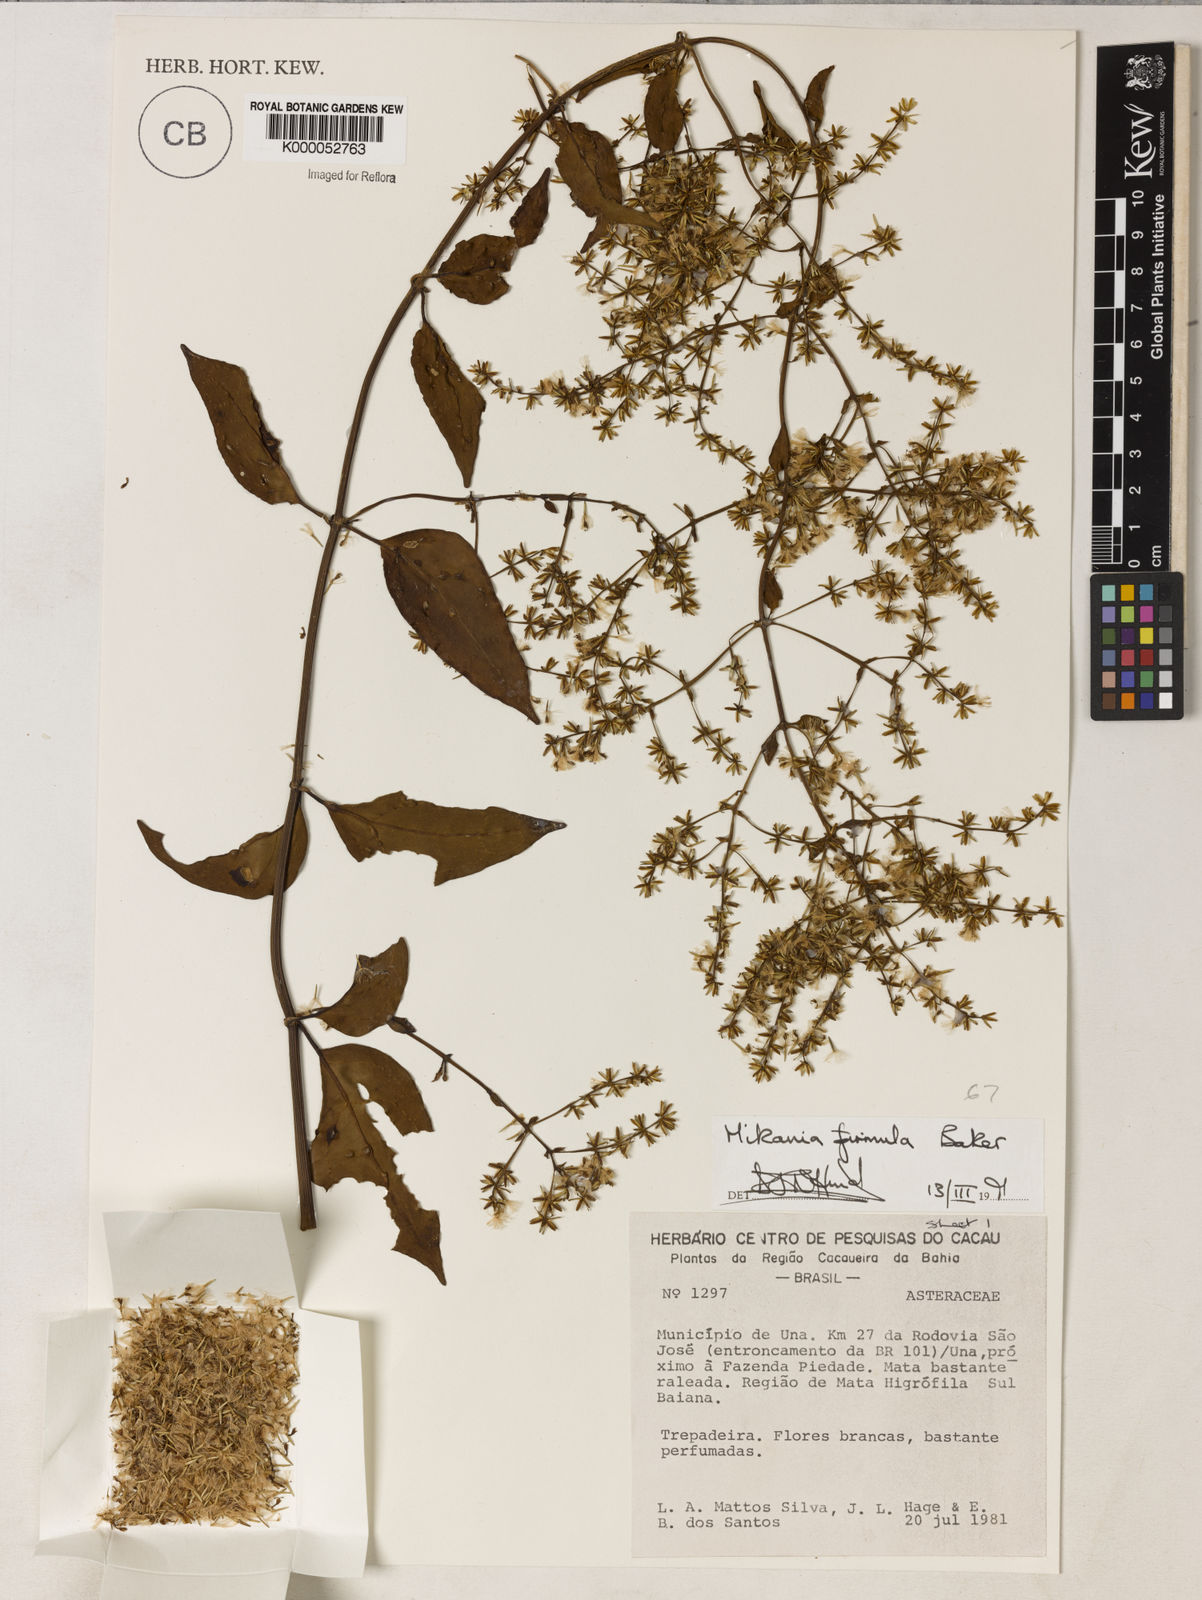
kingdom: Plantae
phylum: Tracheophyta
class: Magnoliopsida
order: Asterales
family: Asteraceae
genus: Mikania
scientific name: Mikania firmula
